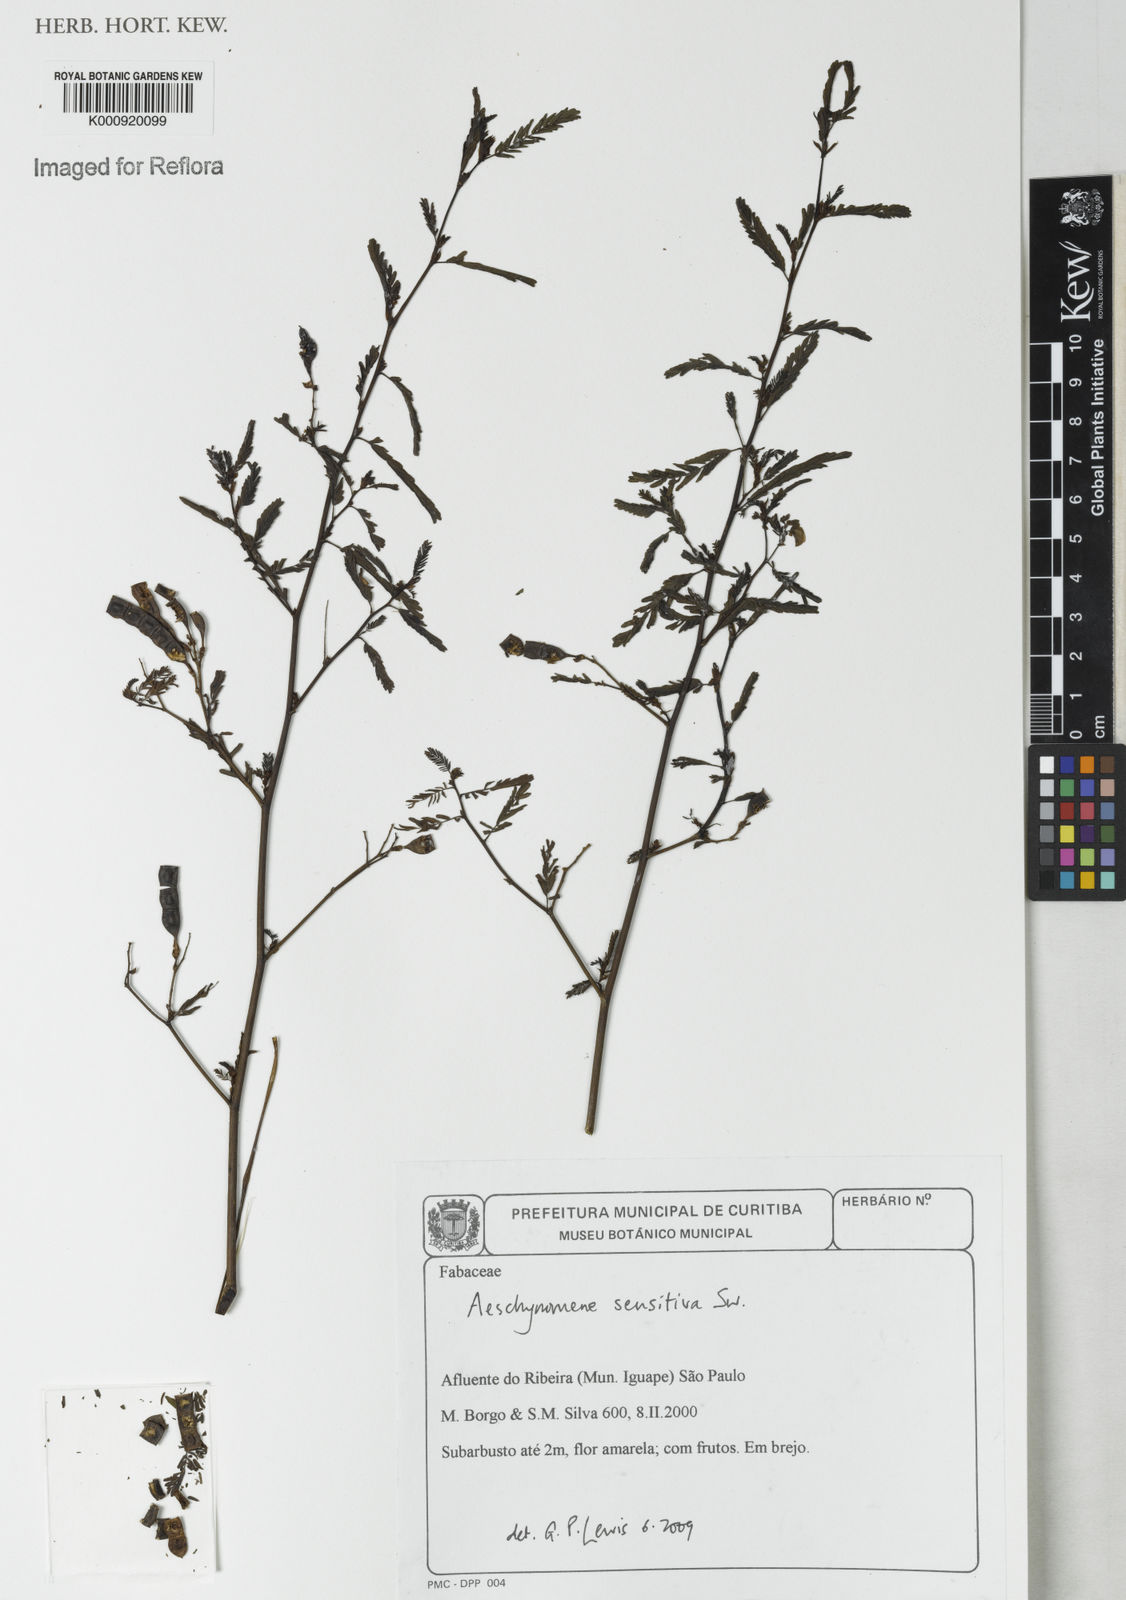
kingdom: Plantae
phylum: Tracheophyta
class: Magnoliopsida
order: Fabales
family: Fabaceae
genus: Aeschynomene
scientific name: Aeschynomene sensitiva
